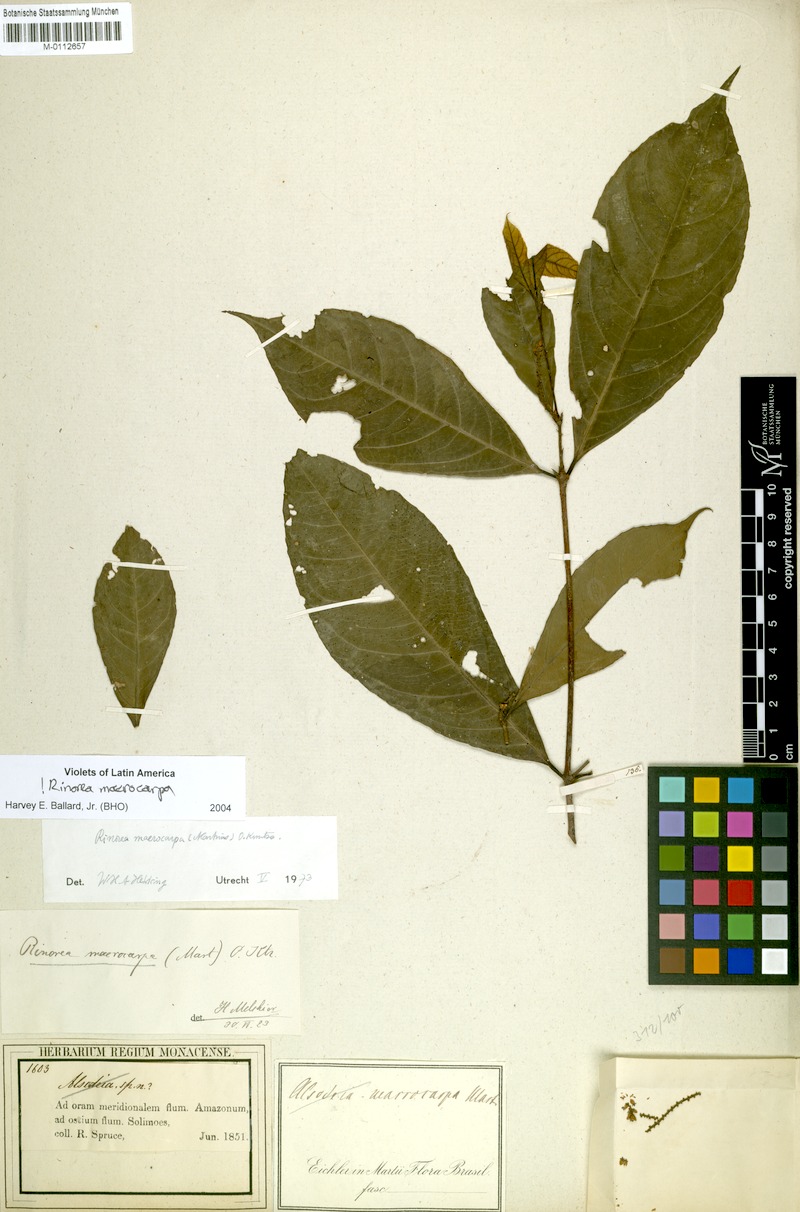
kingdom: Plantae
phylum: Tracheophyta
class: Magnoliopsida
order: Malpighiales
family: Violaceae
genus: Rinorea
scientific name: Rinorea macrocarpa
